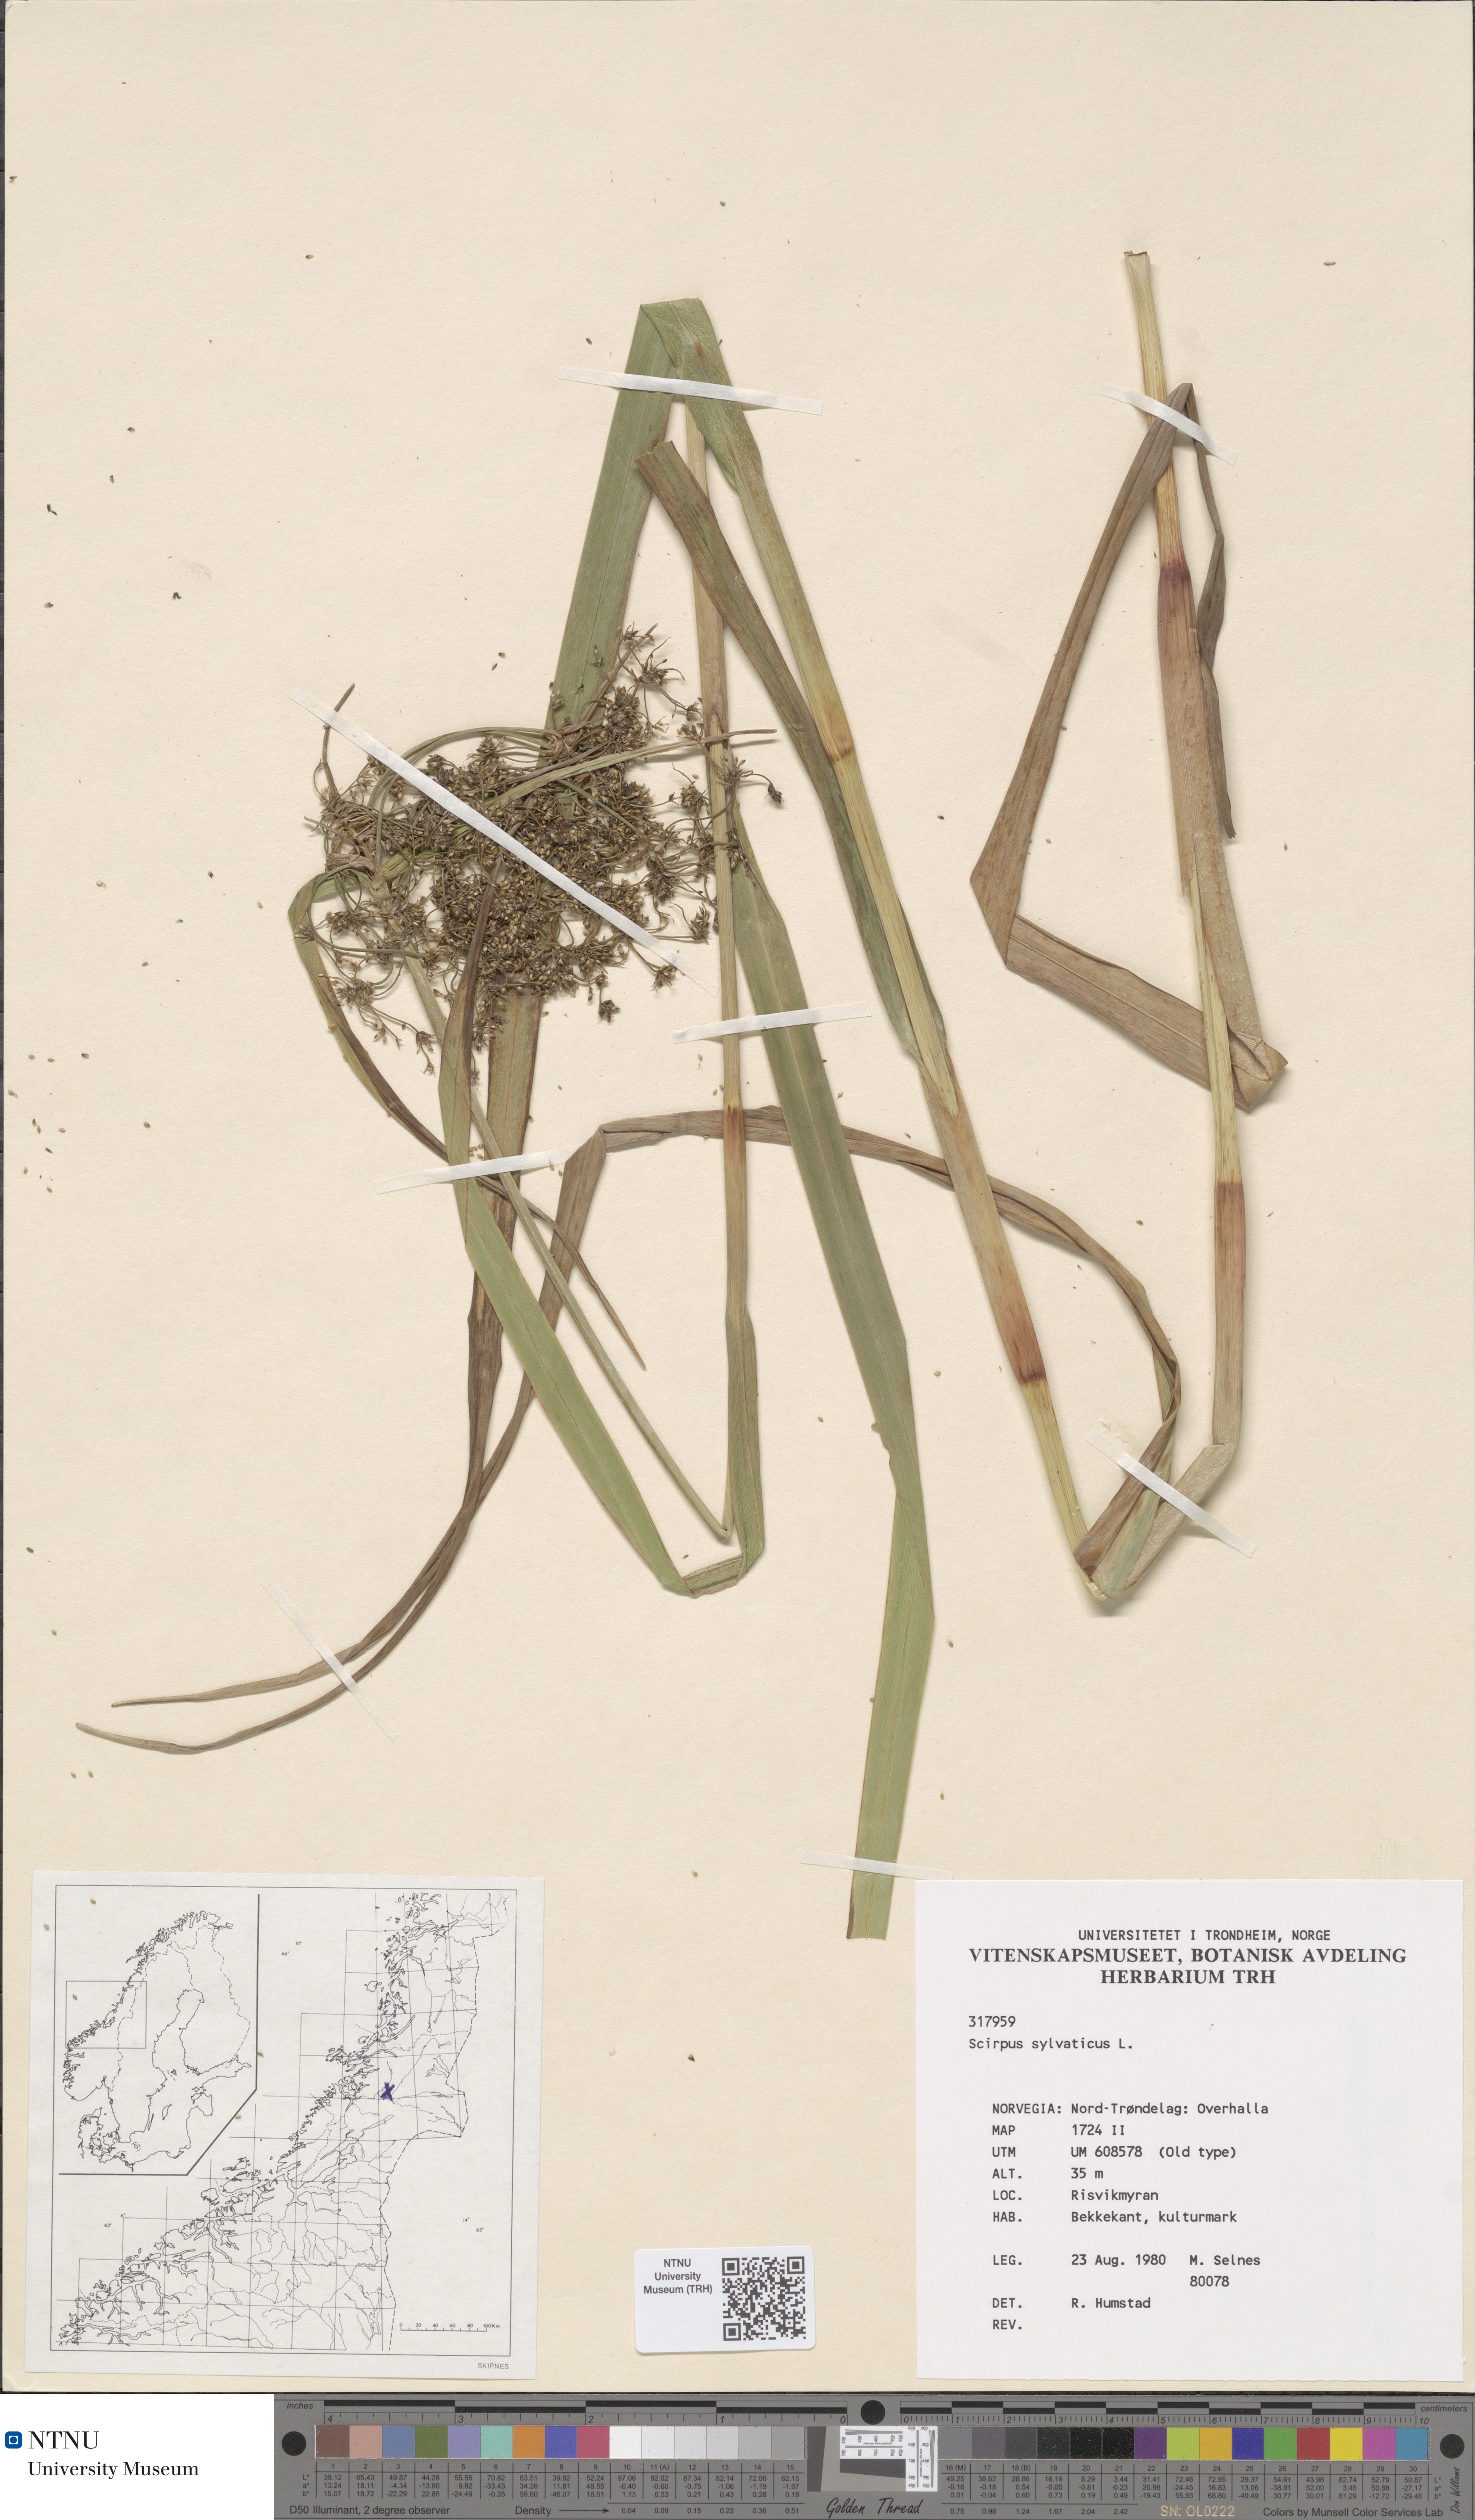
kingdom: Plantae
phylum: Tracheophyta
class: Liliopsida
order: Poales
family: Cyperaceae
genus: Scirpus
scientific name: Scirpus sylvaticus
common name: Wood club-rush
